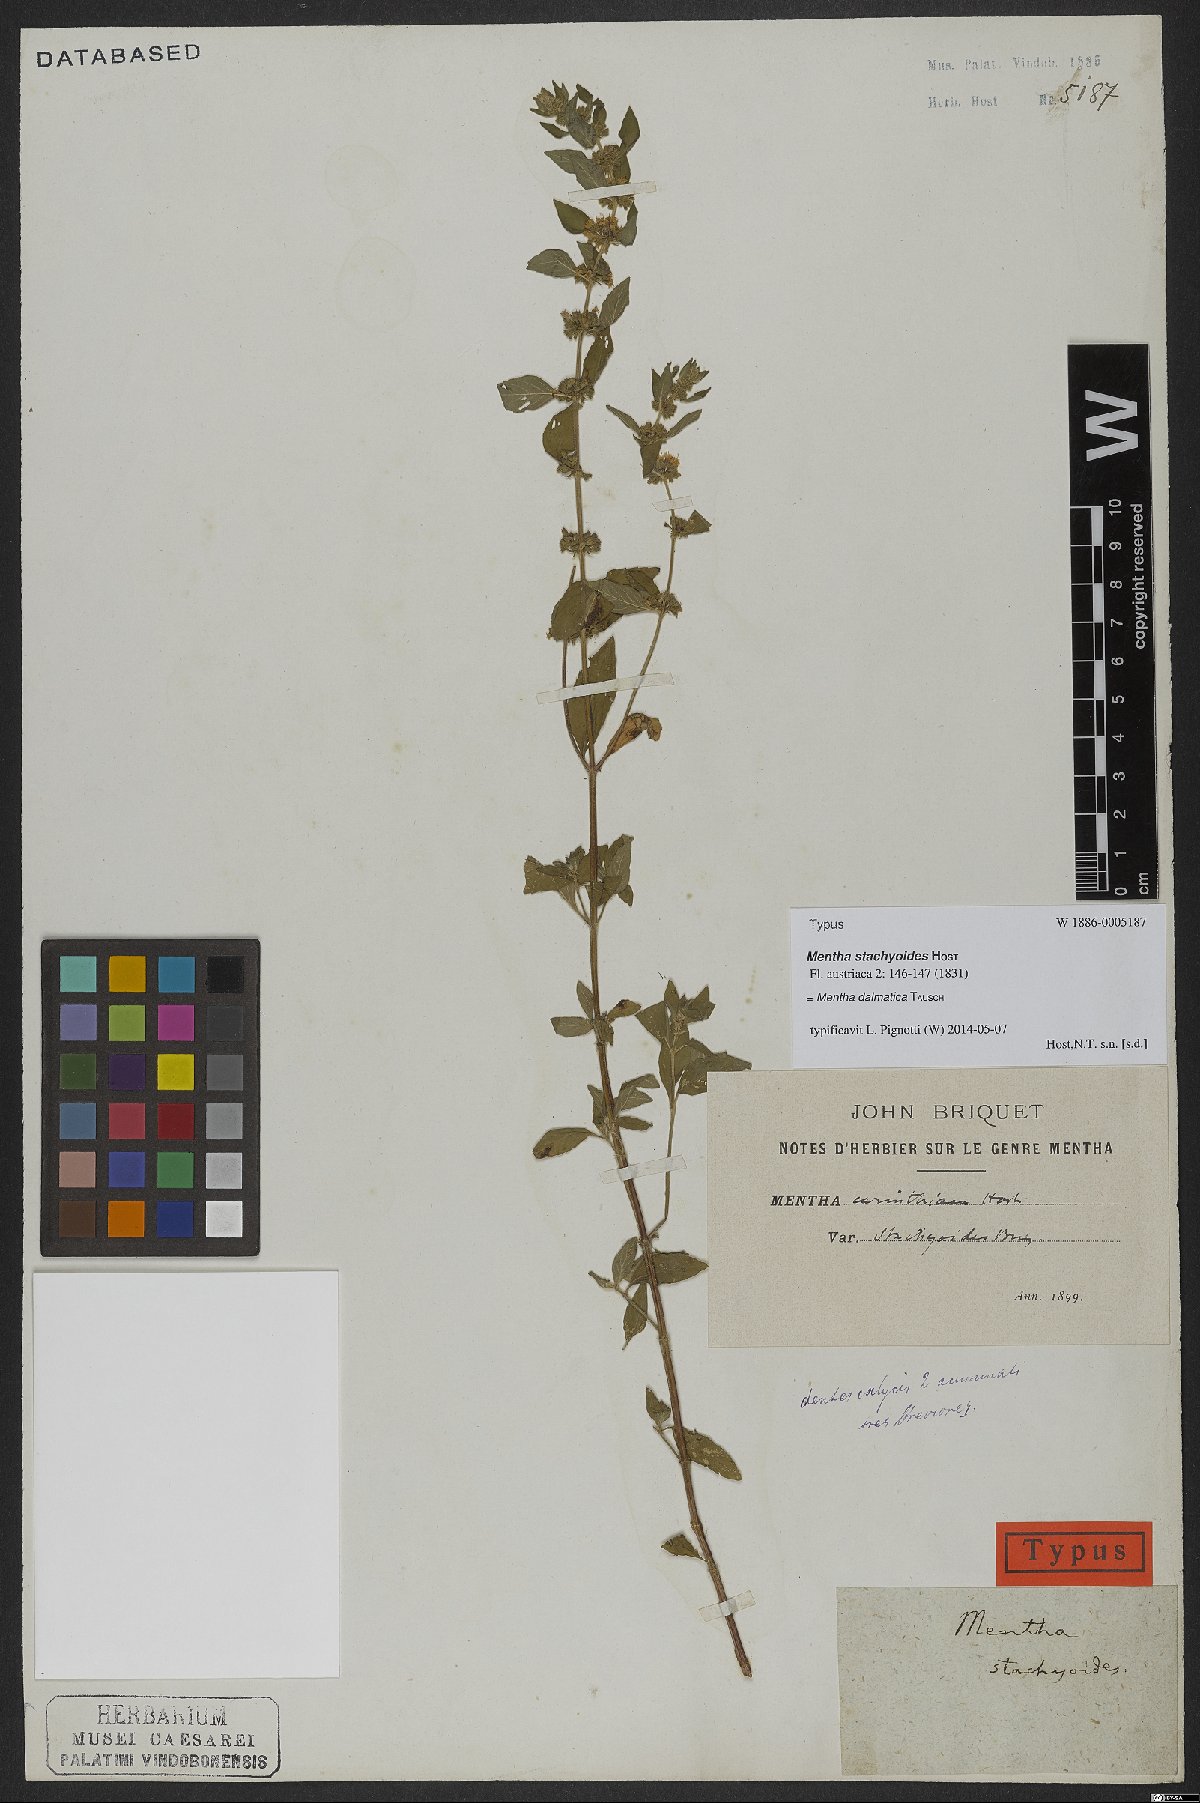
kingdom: Plantae
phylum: Tracheophyta
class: Magnoliopsida
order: Lamiales
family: Lamiaceae
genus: Mentha
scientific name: Mentha dalmatica
